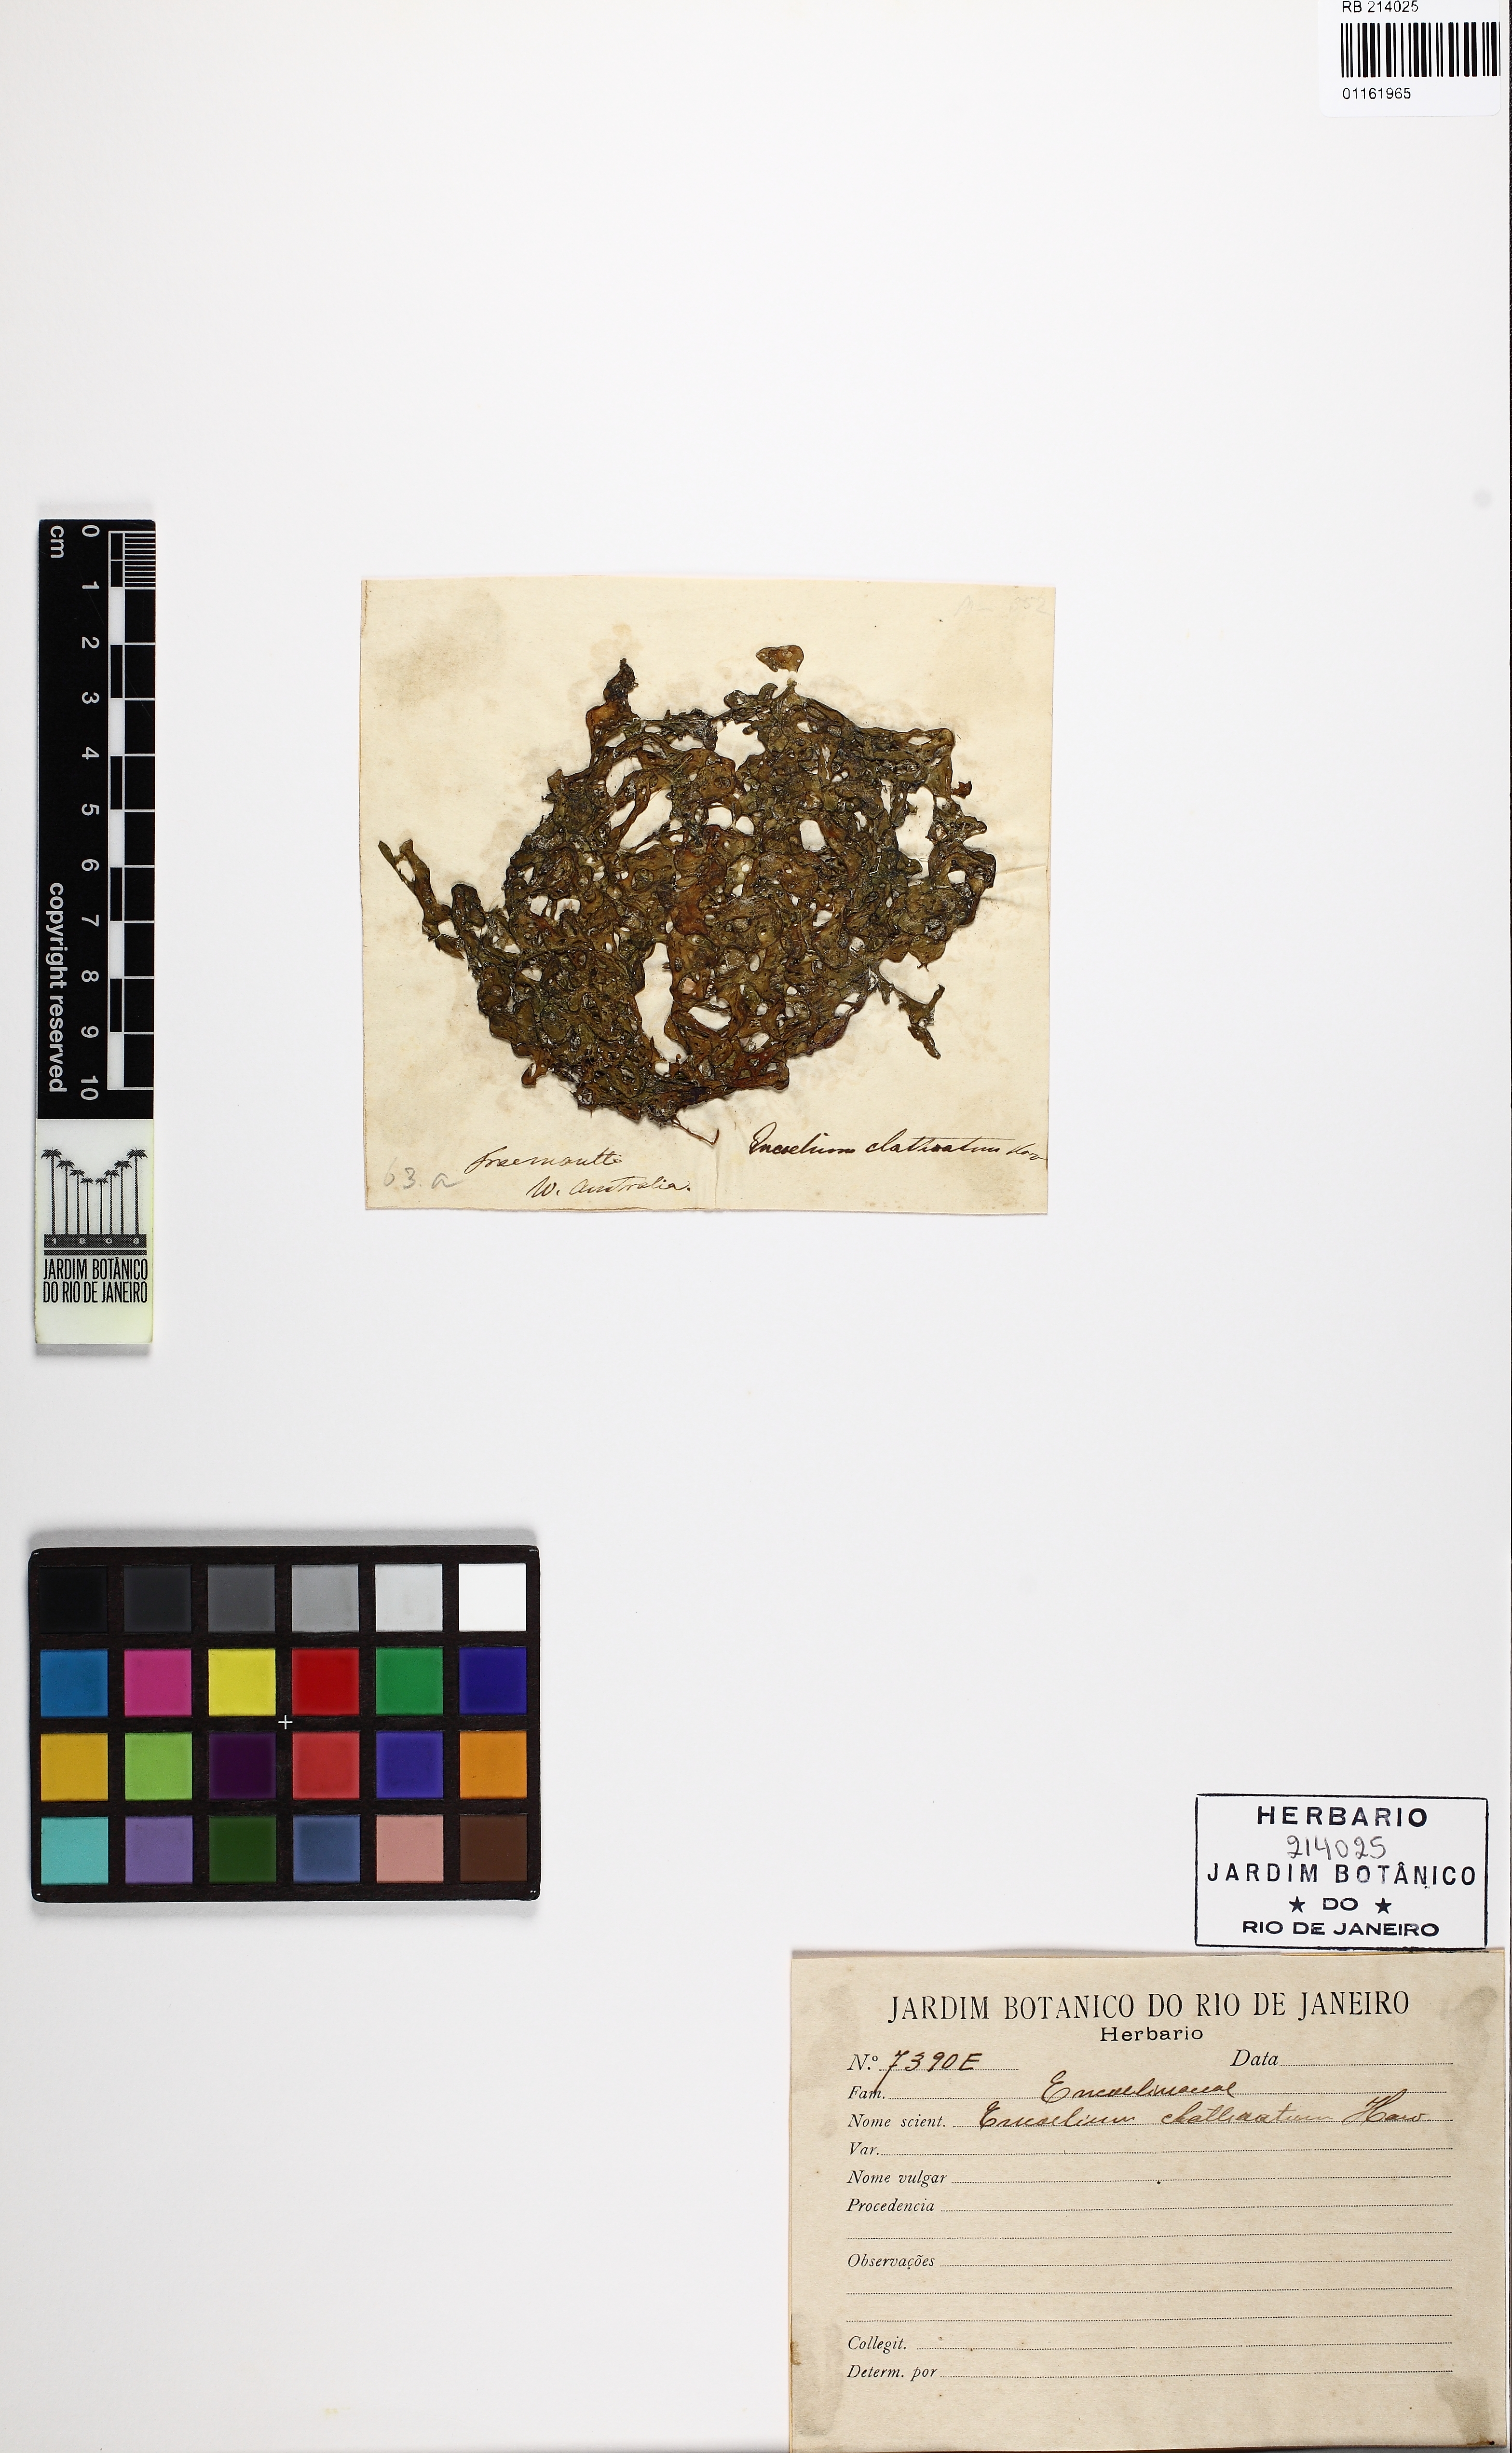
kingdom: Chromista
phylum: Ochrophyta
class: Phaeophyceae
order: Scytosiphonales
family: Scytosiphonaceae
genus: Hydroclathrus
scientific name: Hydroclathrus clathratus
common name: Swiss cheese algae
